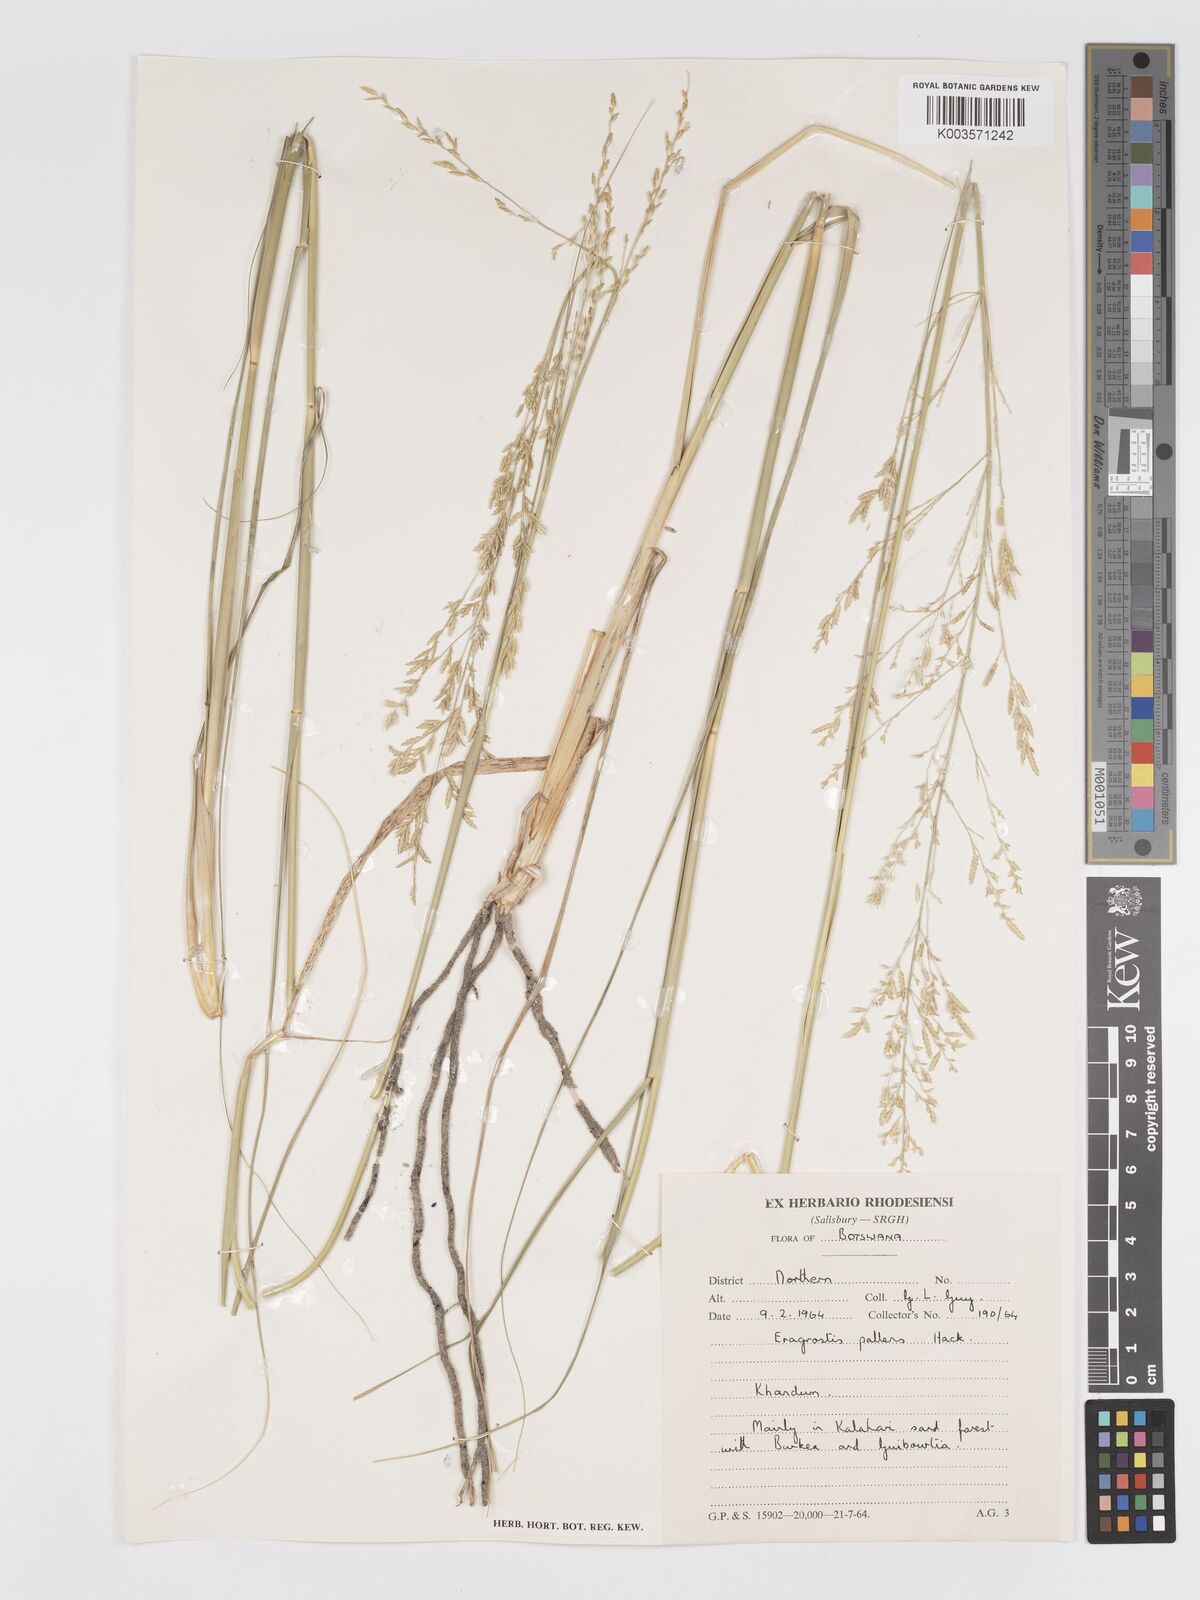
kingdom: Plantae
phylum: Tracheophyta
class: Liliopsida
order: Poales
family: Poaceae
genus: Eragrostis
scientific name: Eragrostis pallens
